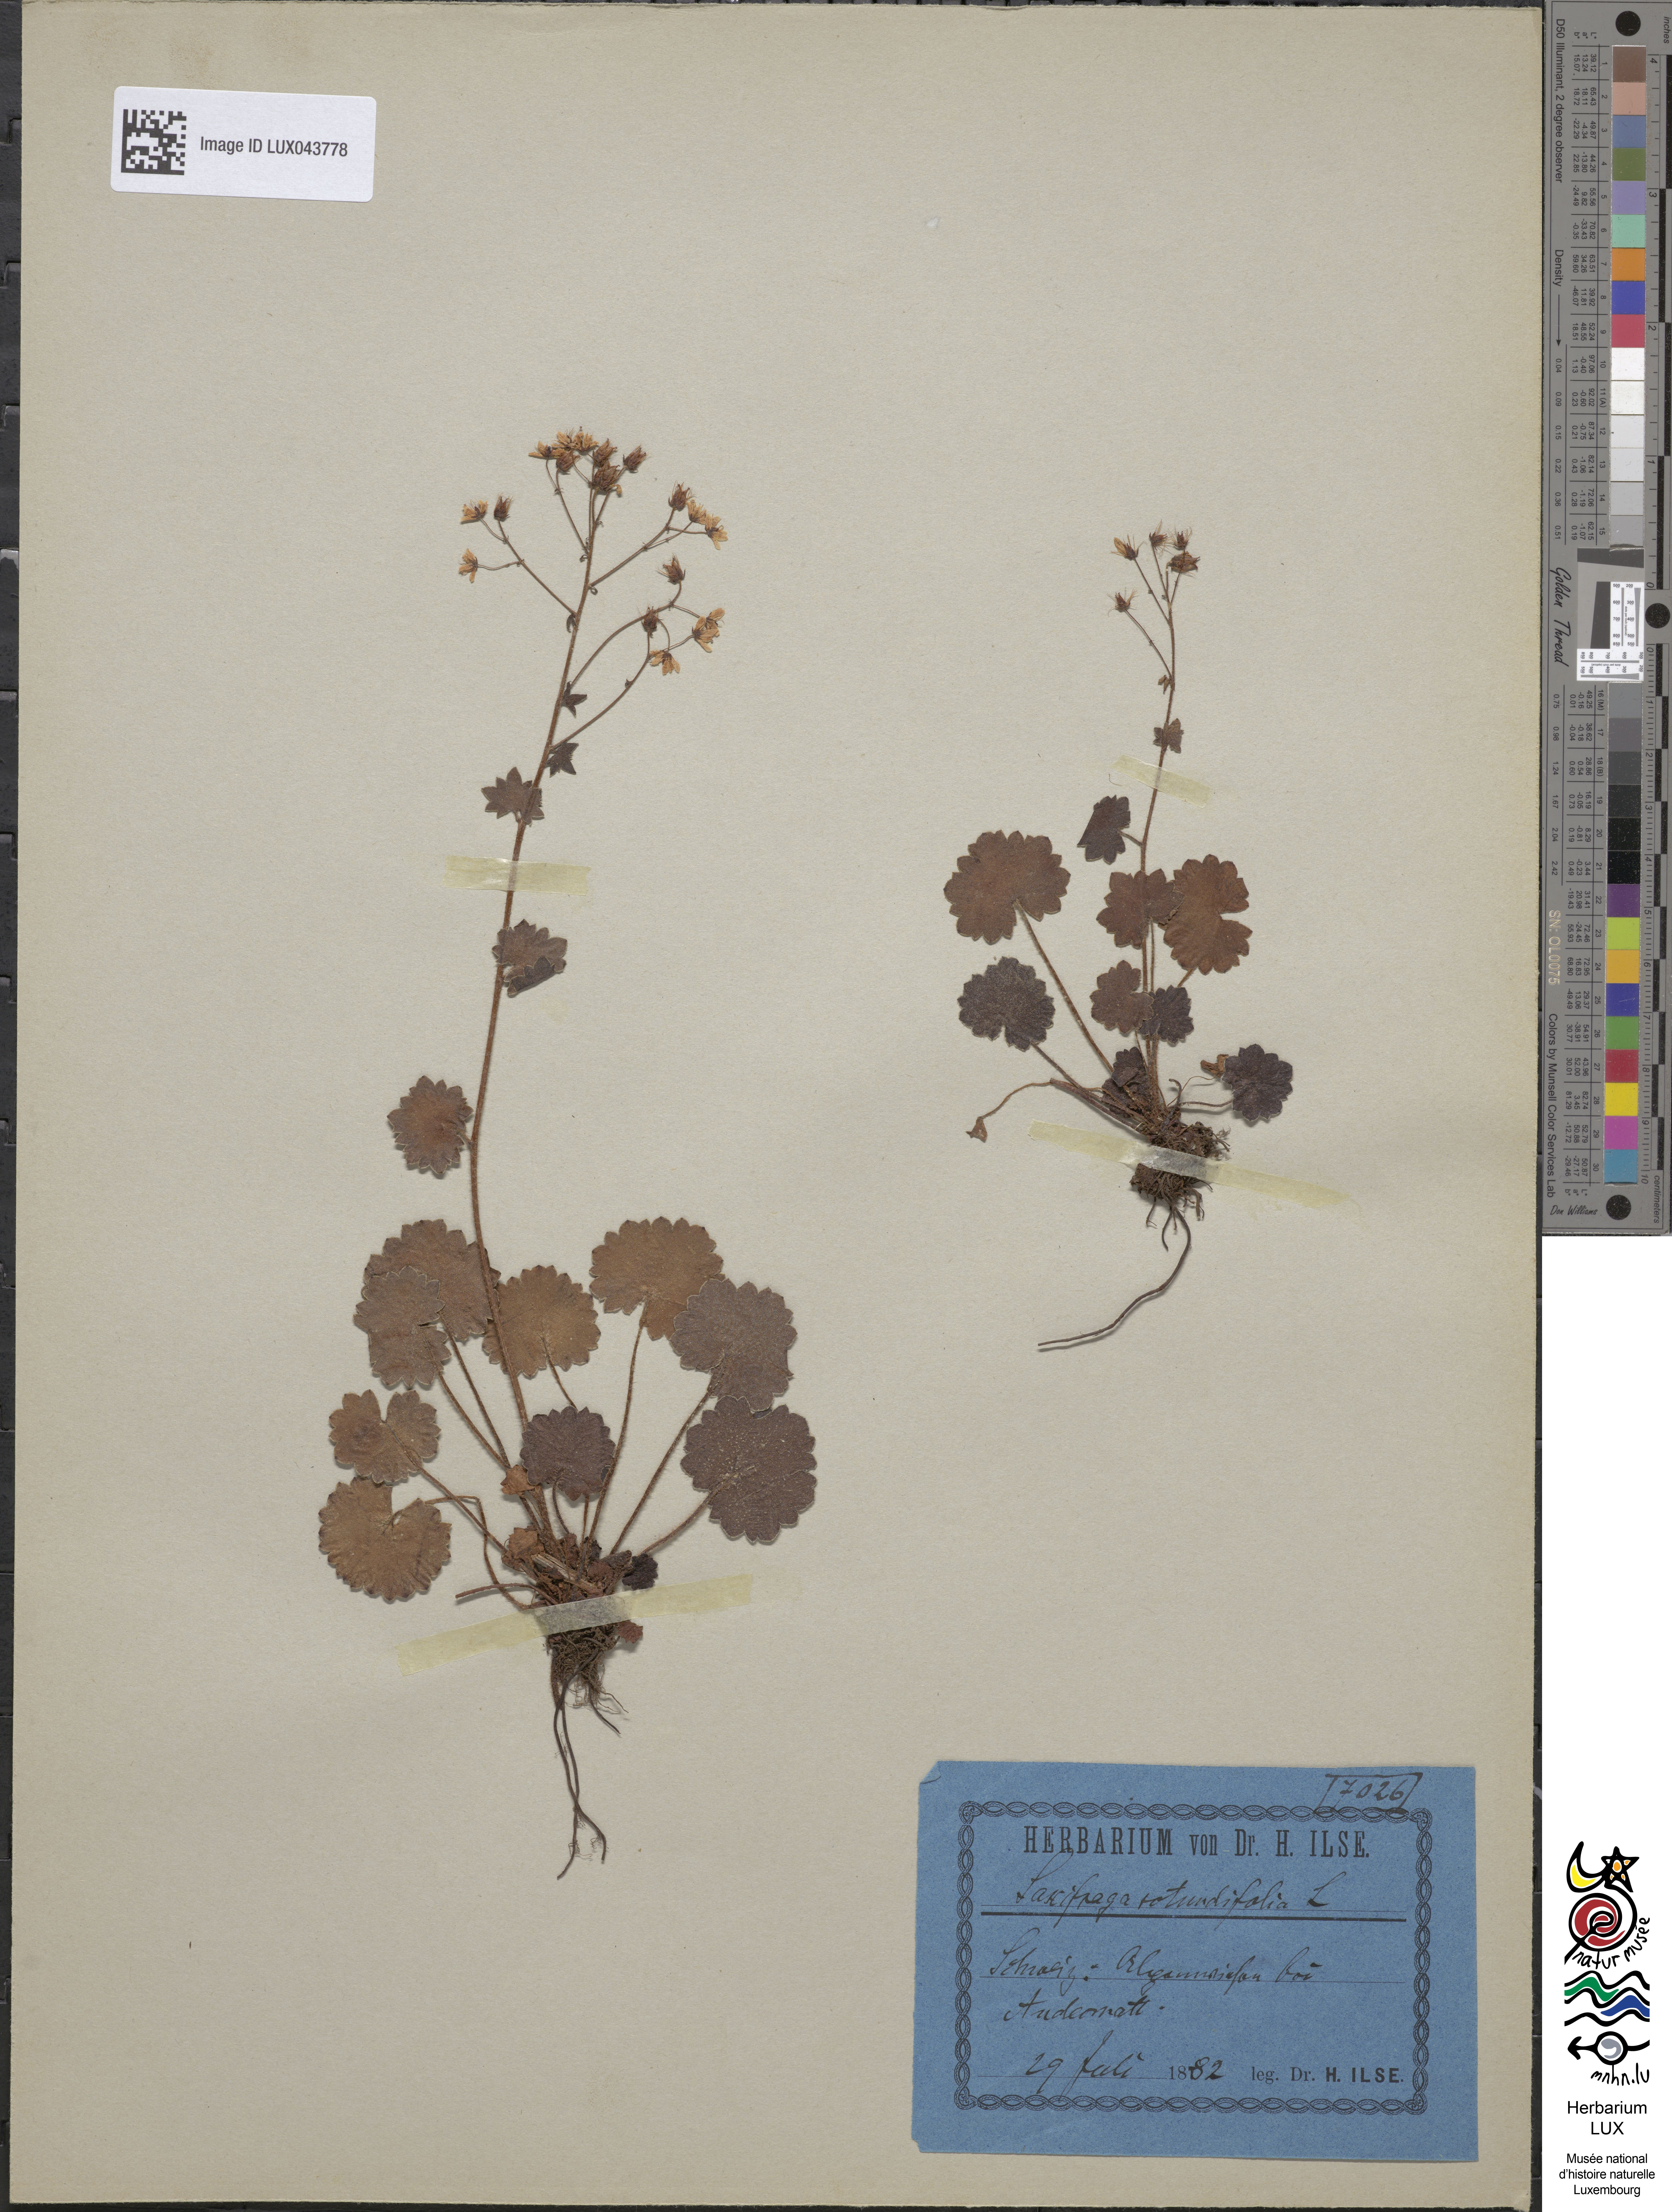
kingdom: Plantae
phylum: Tracheophyta
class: Magnoliopsida
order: Saxifragales
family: Saxifragaceae
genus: Saxifraga
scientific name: Saxifraga rotundifolia
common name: Round-leaved saxifrage
